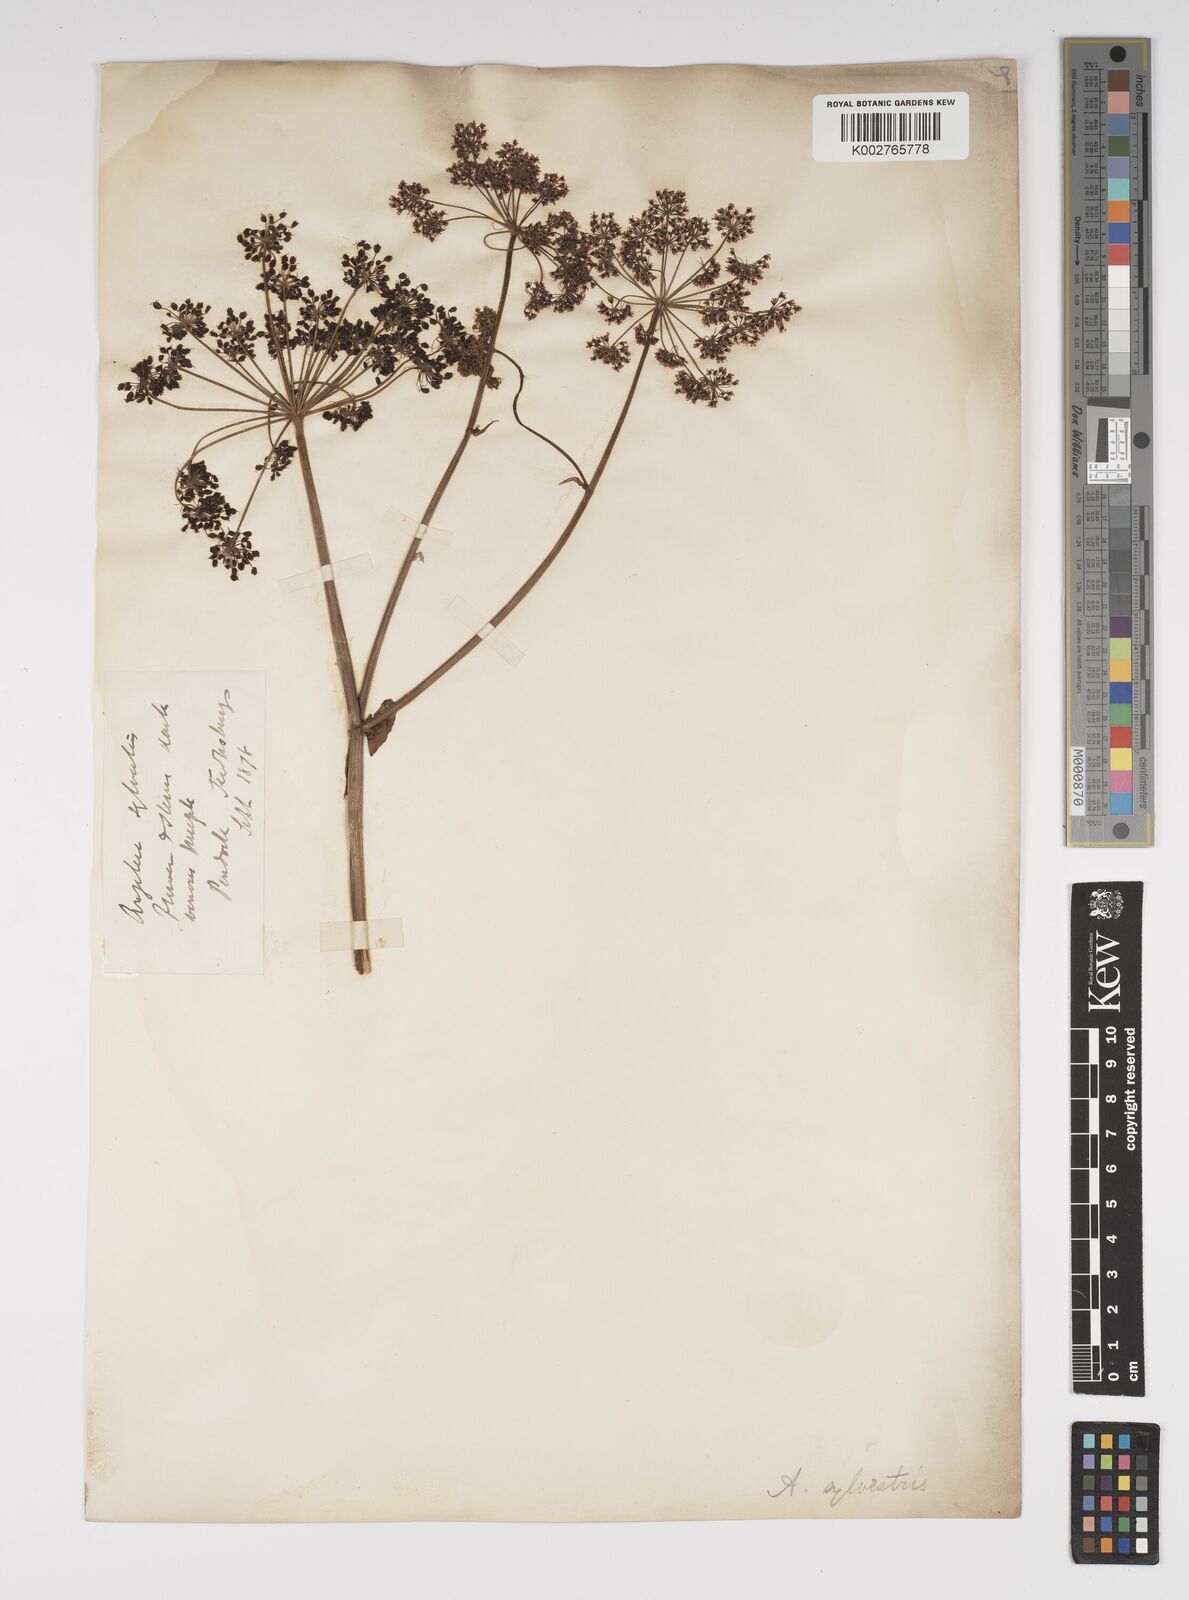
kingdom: Plantae
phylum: Tracheophyta
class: Magnoliopsida
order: Apiales
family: Apiaceae
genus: Angelica
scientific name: Angelica sylvestris
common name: Wild angelica
